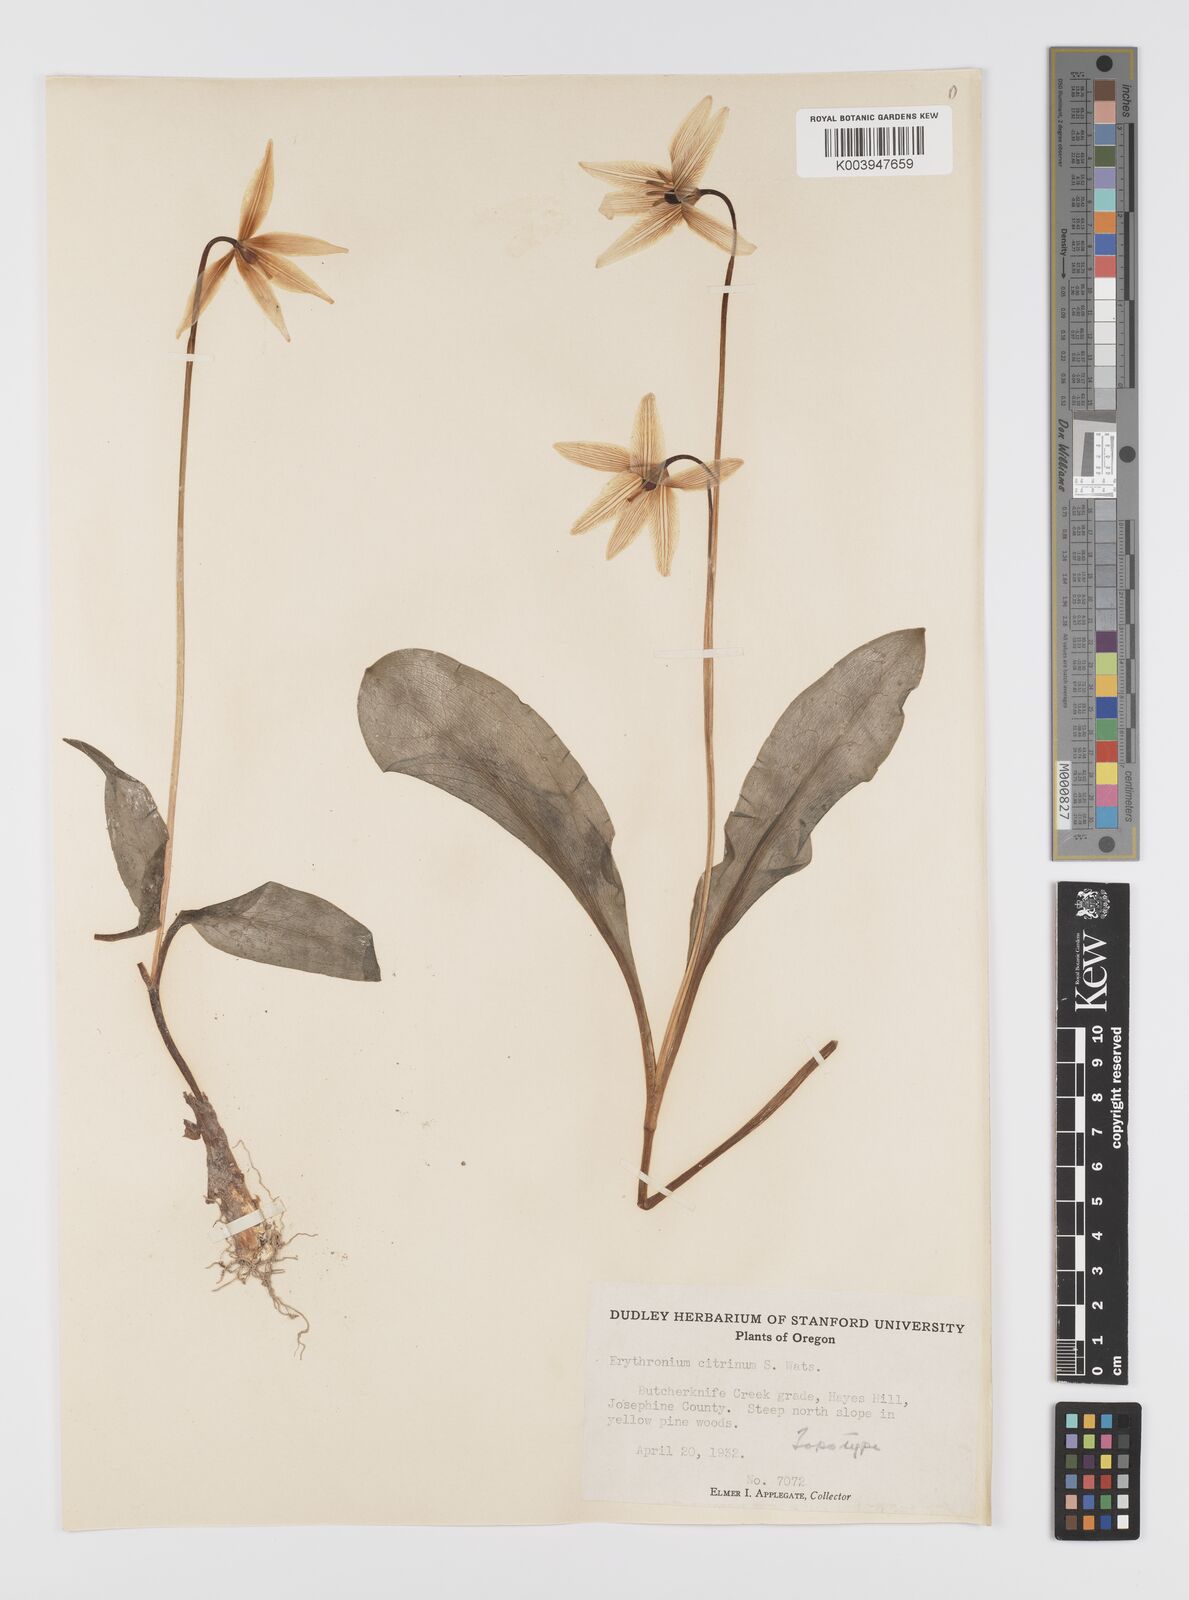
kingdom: Plantae
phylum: Tracheophyta
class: Liliopsida
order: Liliales
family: Liliaceae
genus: Erythronium
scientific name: Erythronium citrinum
